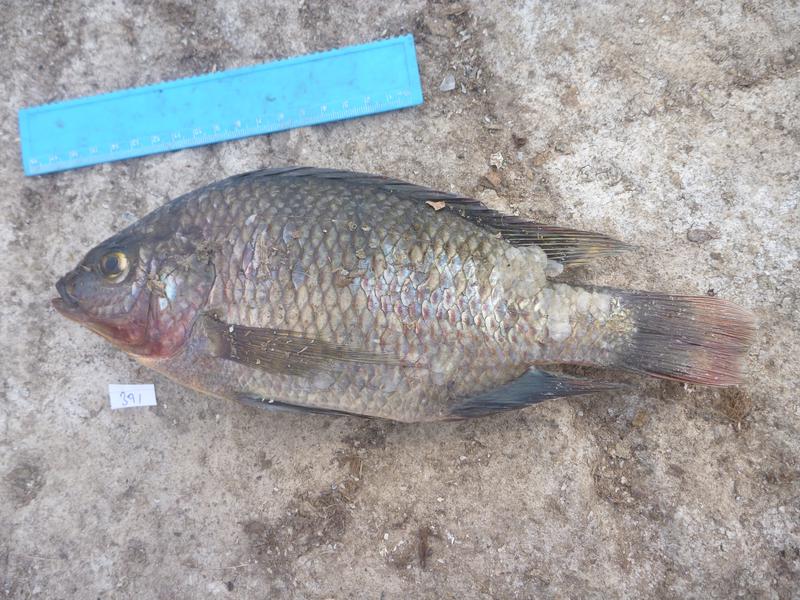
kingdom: Animalia
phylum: Chordata
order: Perciformes
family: Cichlidae
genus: Oreochromis
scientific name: Oreochromis niloticus
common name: Nile tilapia
